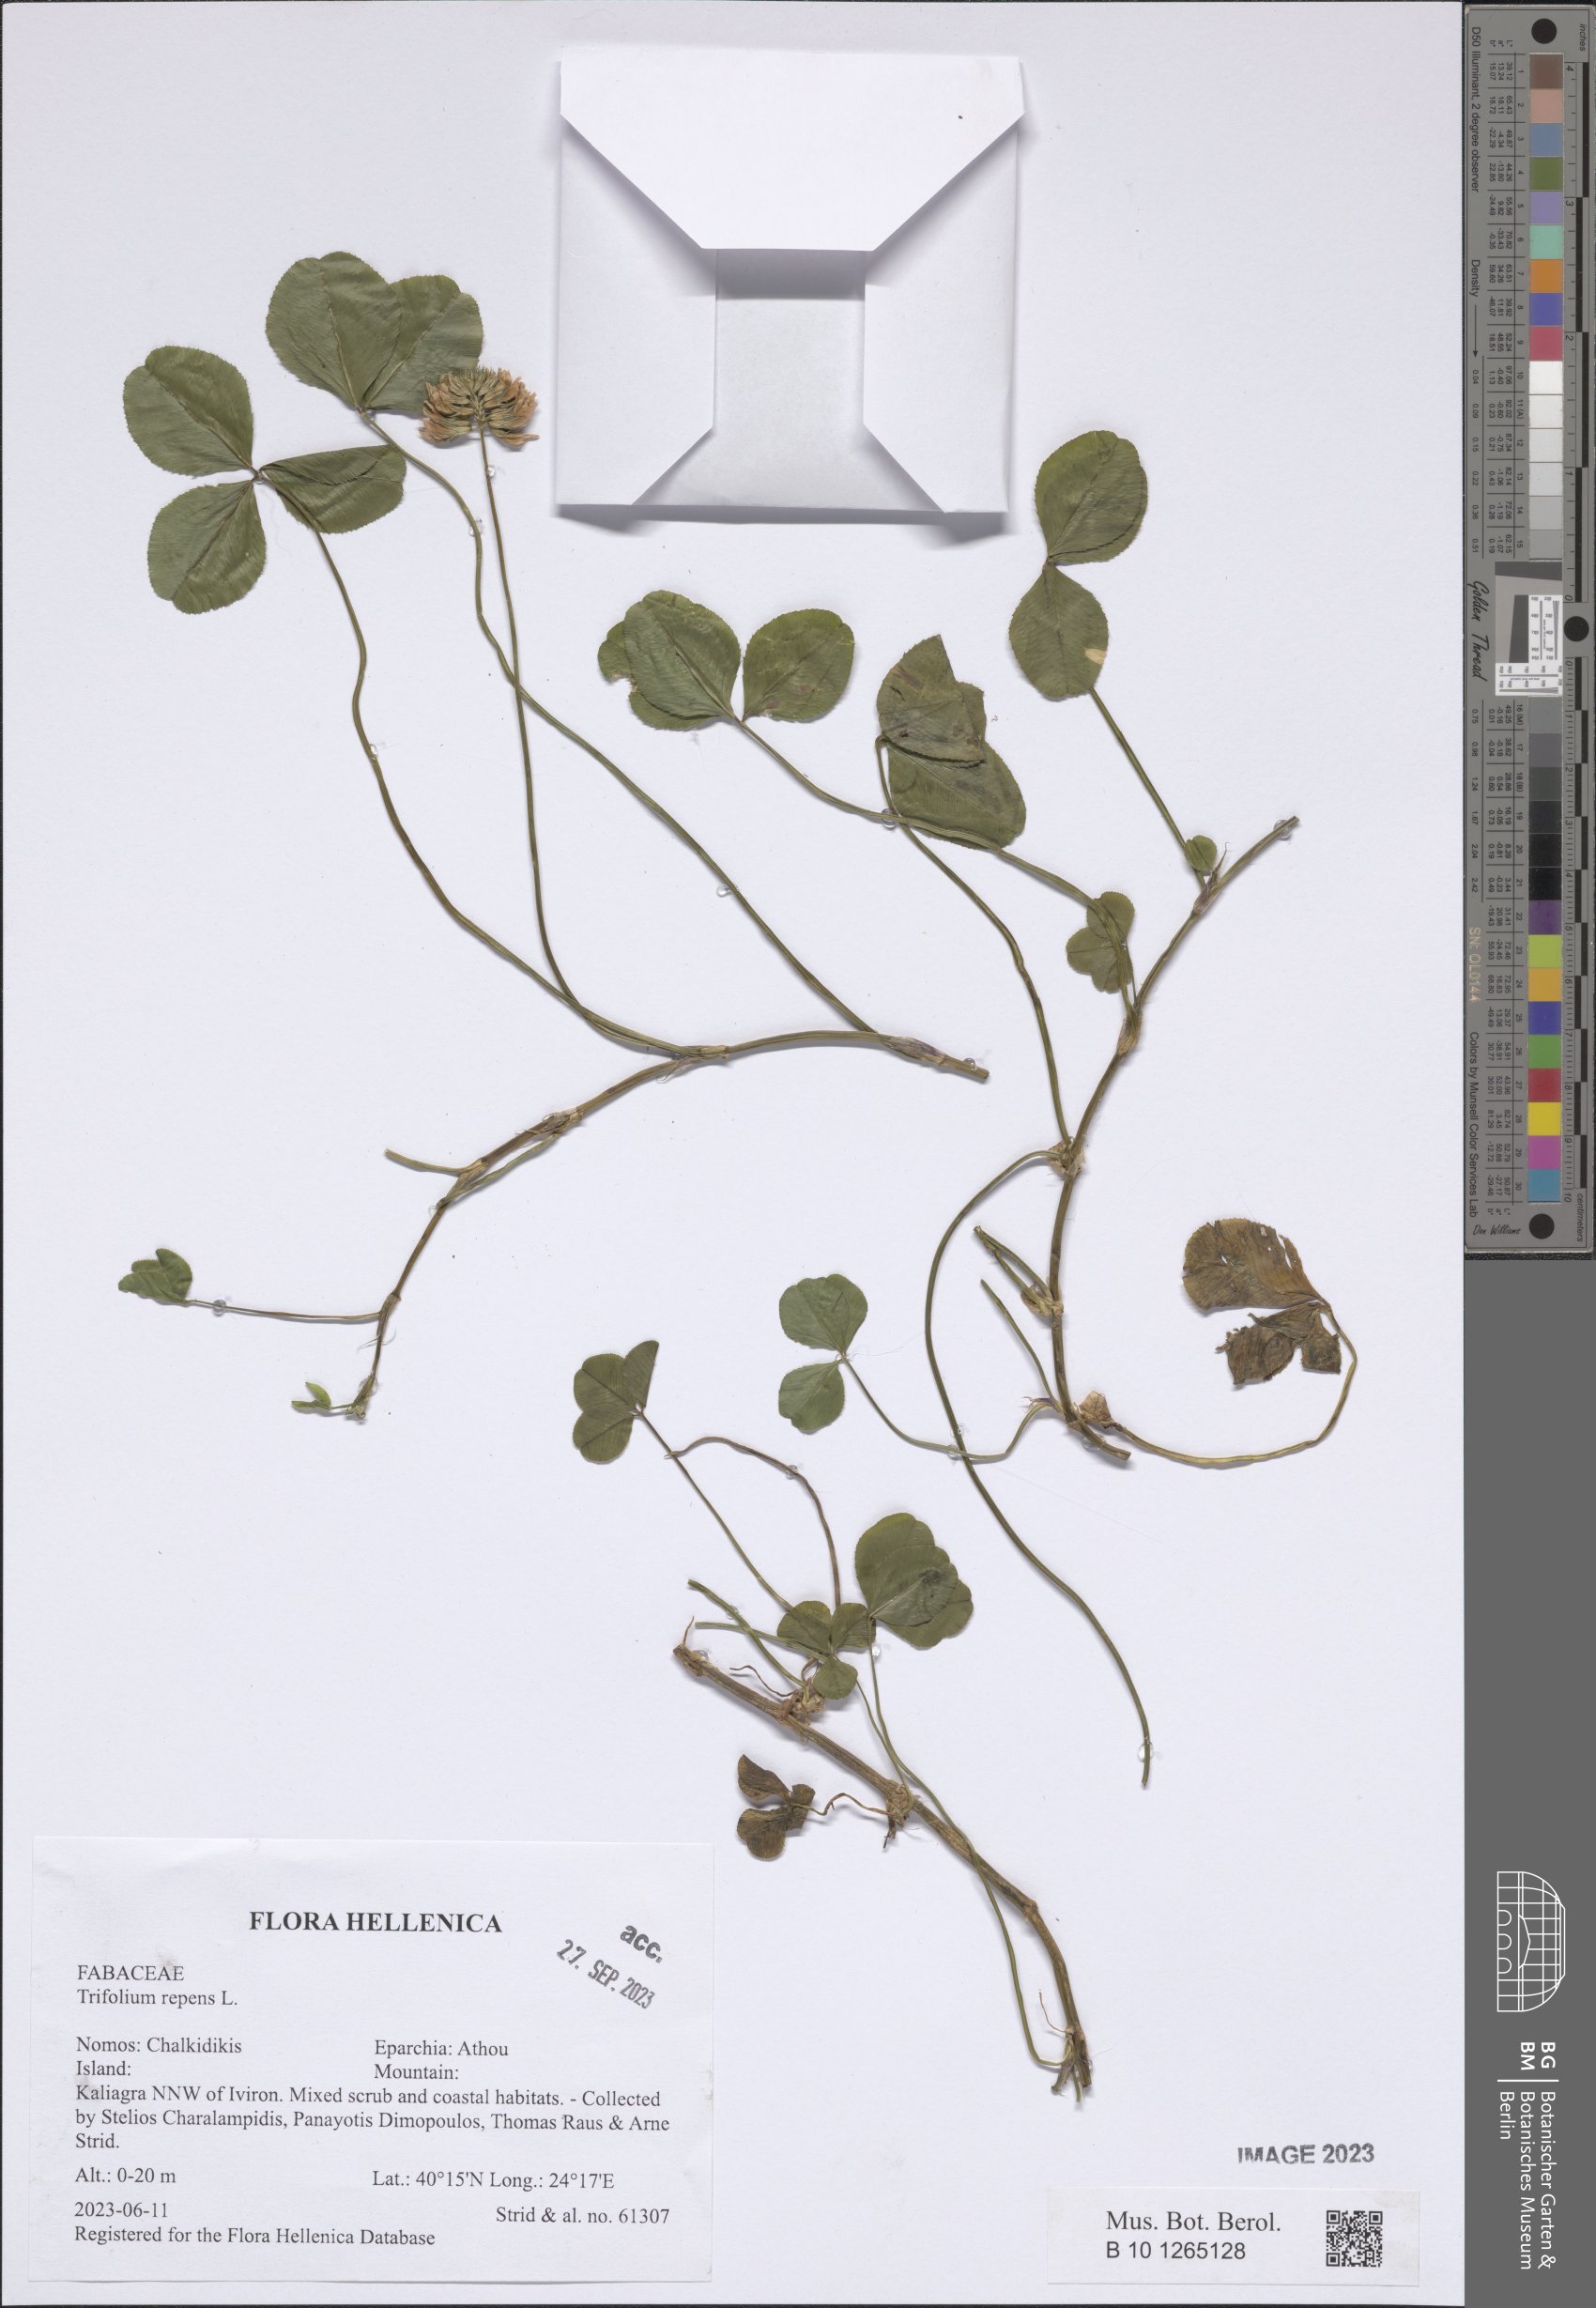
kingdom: Plantae
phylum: Tracheophyta
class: Magnoliopsida
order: Fabales
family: Fabaceae
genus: Trifolium
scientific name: Trifolium repens
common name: White clover
